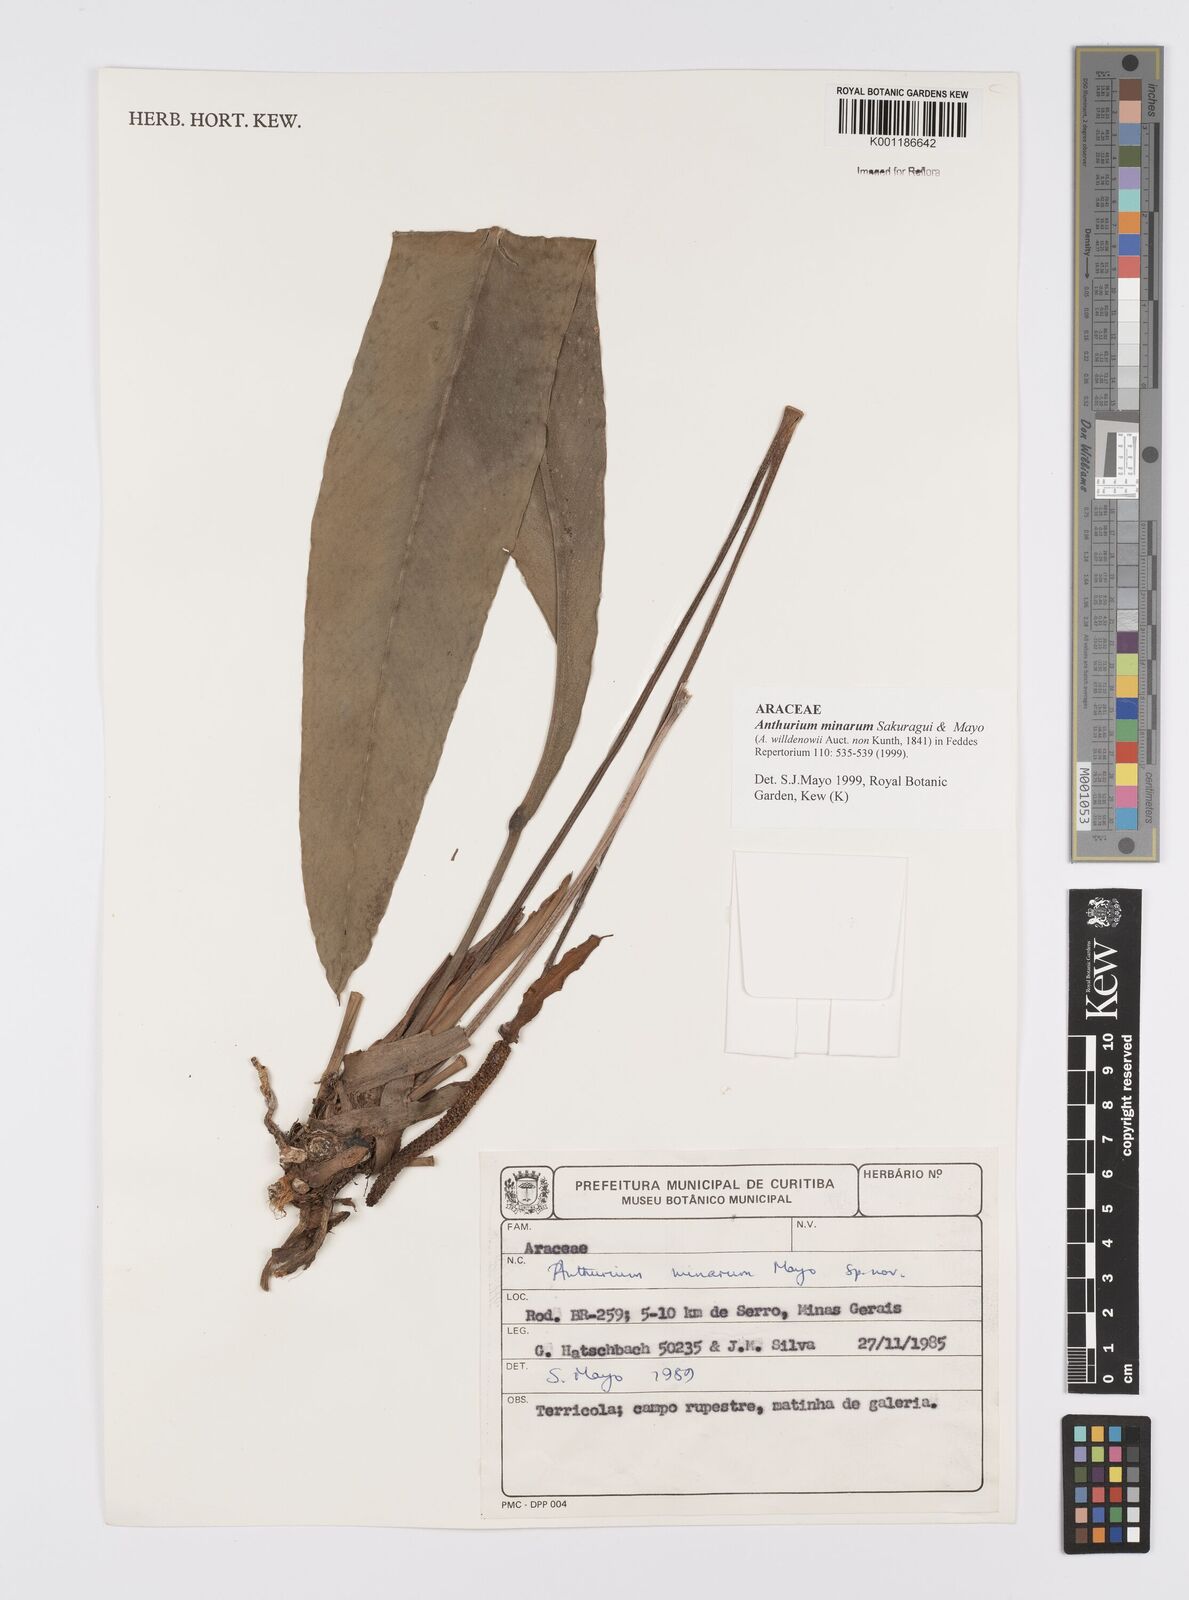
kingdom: Plantae
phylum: Tracheophyta
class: Liliopsida
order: Alismatales
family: Araceae
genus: Anthurium
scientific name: Anthurium minarum
